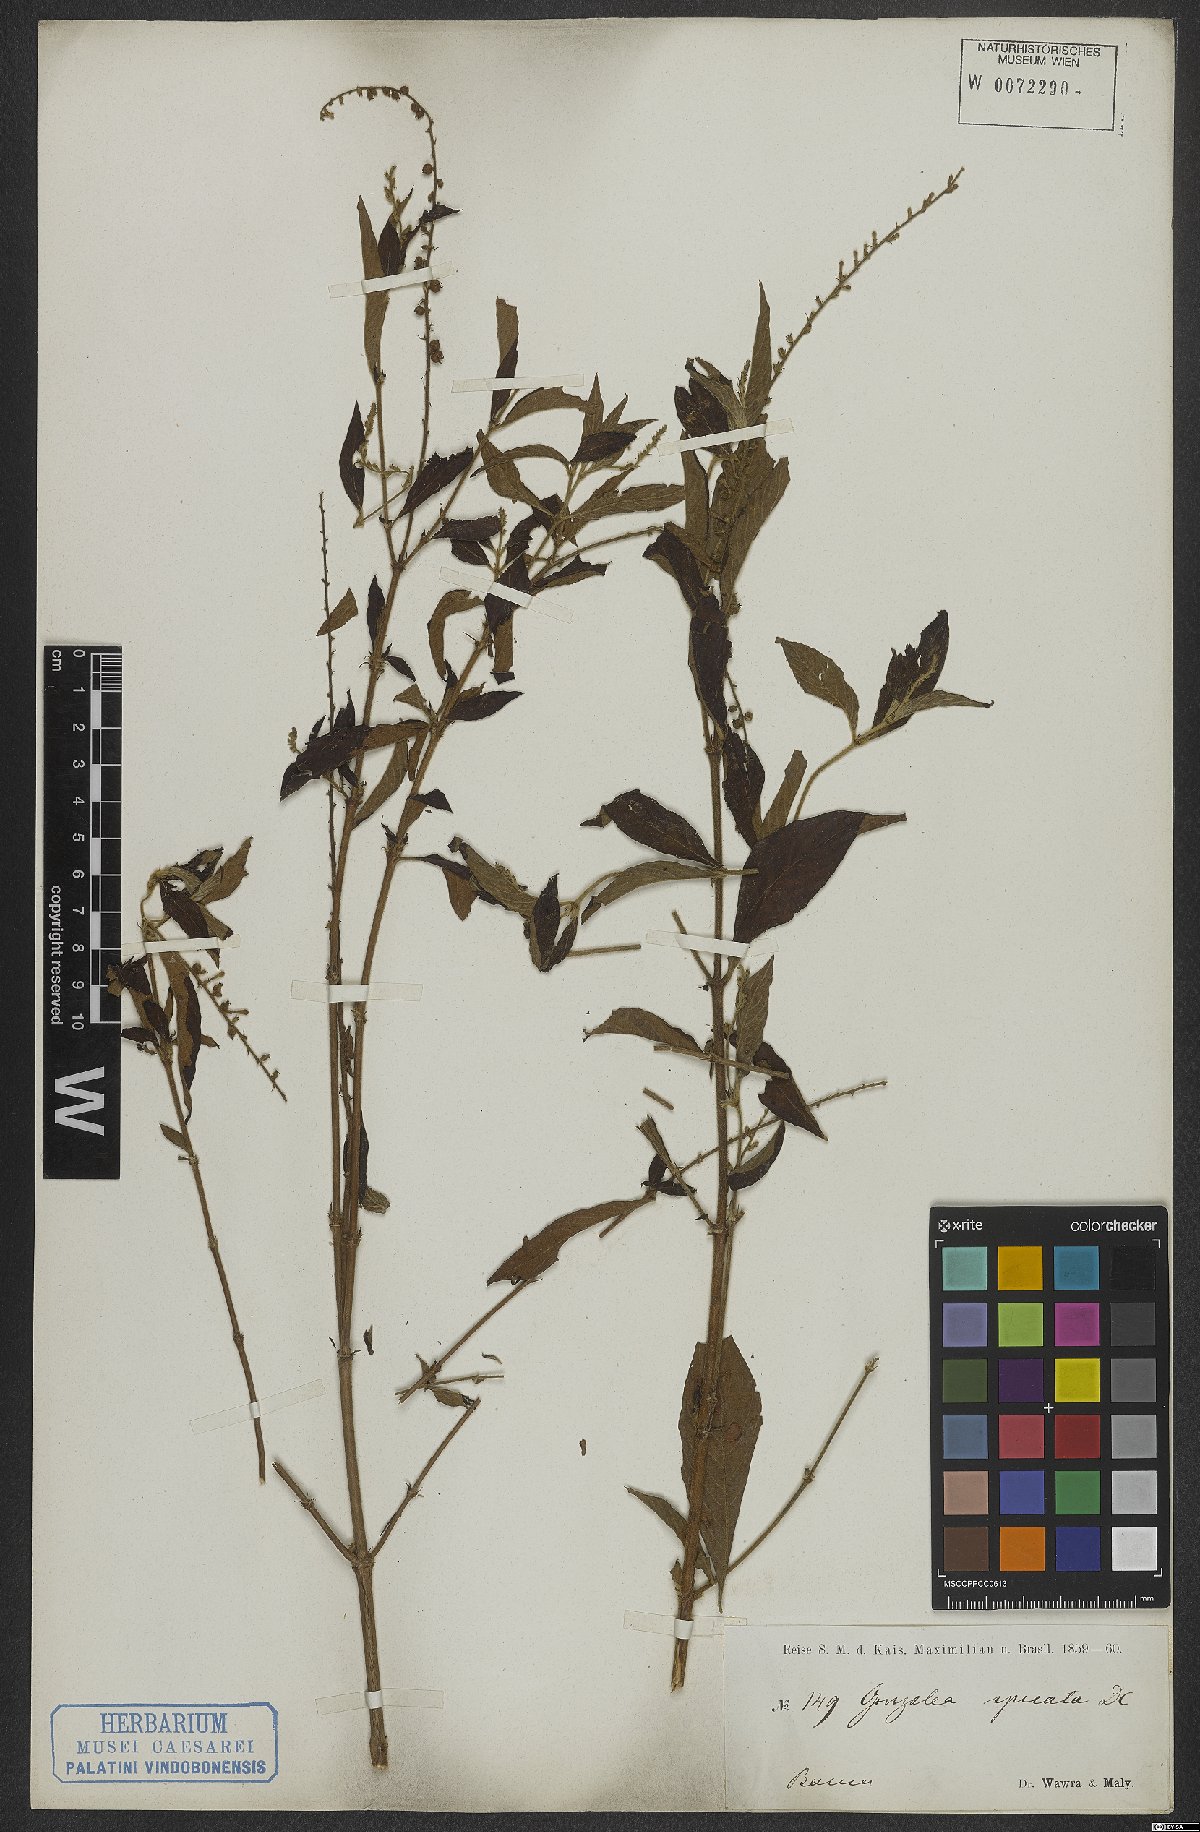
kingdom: Plantae
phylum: Tracheophyta
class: Magnoliopsida
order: Gentianales
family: Rubiaceae
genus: Gonzalagunia
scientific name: Gonzalagunia hirsuta
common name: Mata de mariposa
